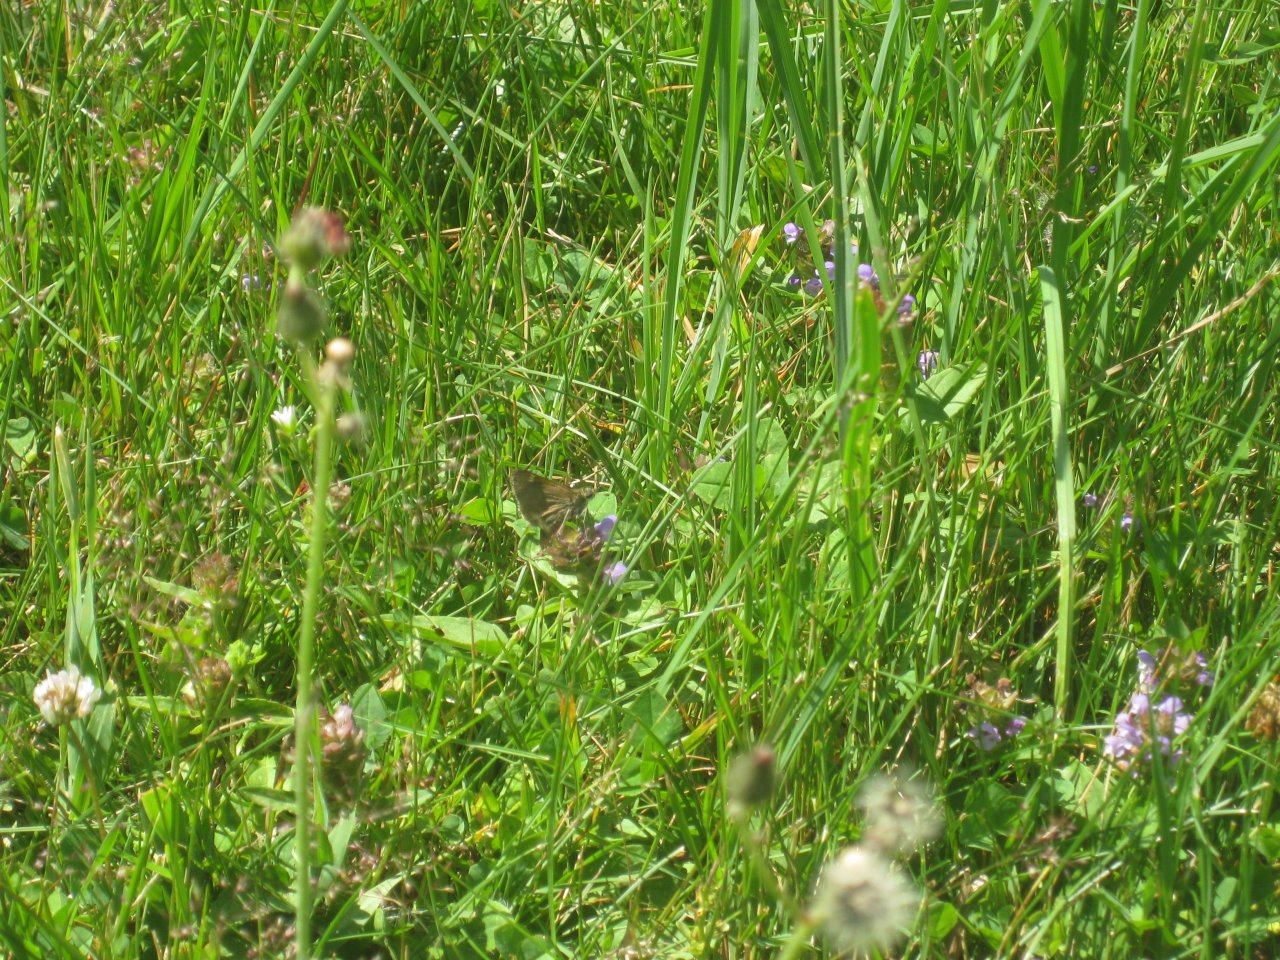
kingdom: Animalia
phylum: Arthropoda
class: Insecta
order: Lepidoptera
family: Hesperiidae
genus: Mastor
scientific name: Mastor vialis
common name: Common Roadside-Skipper
